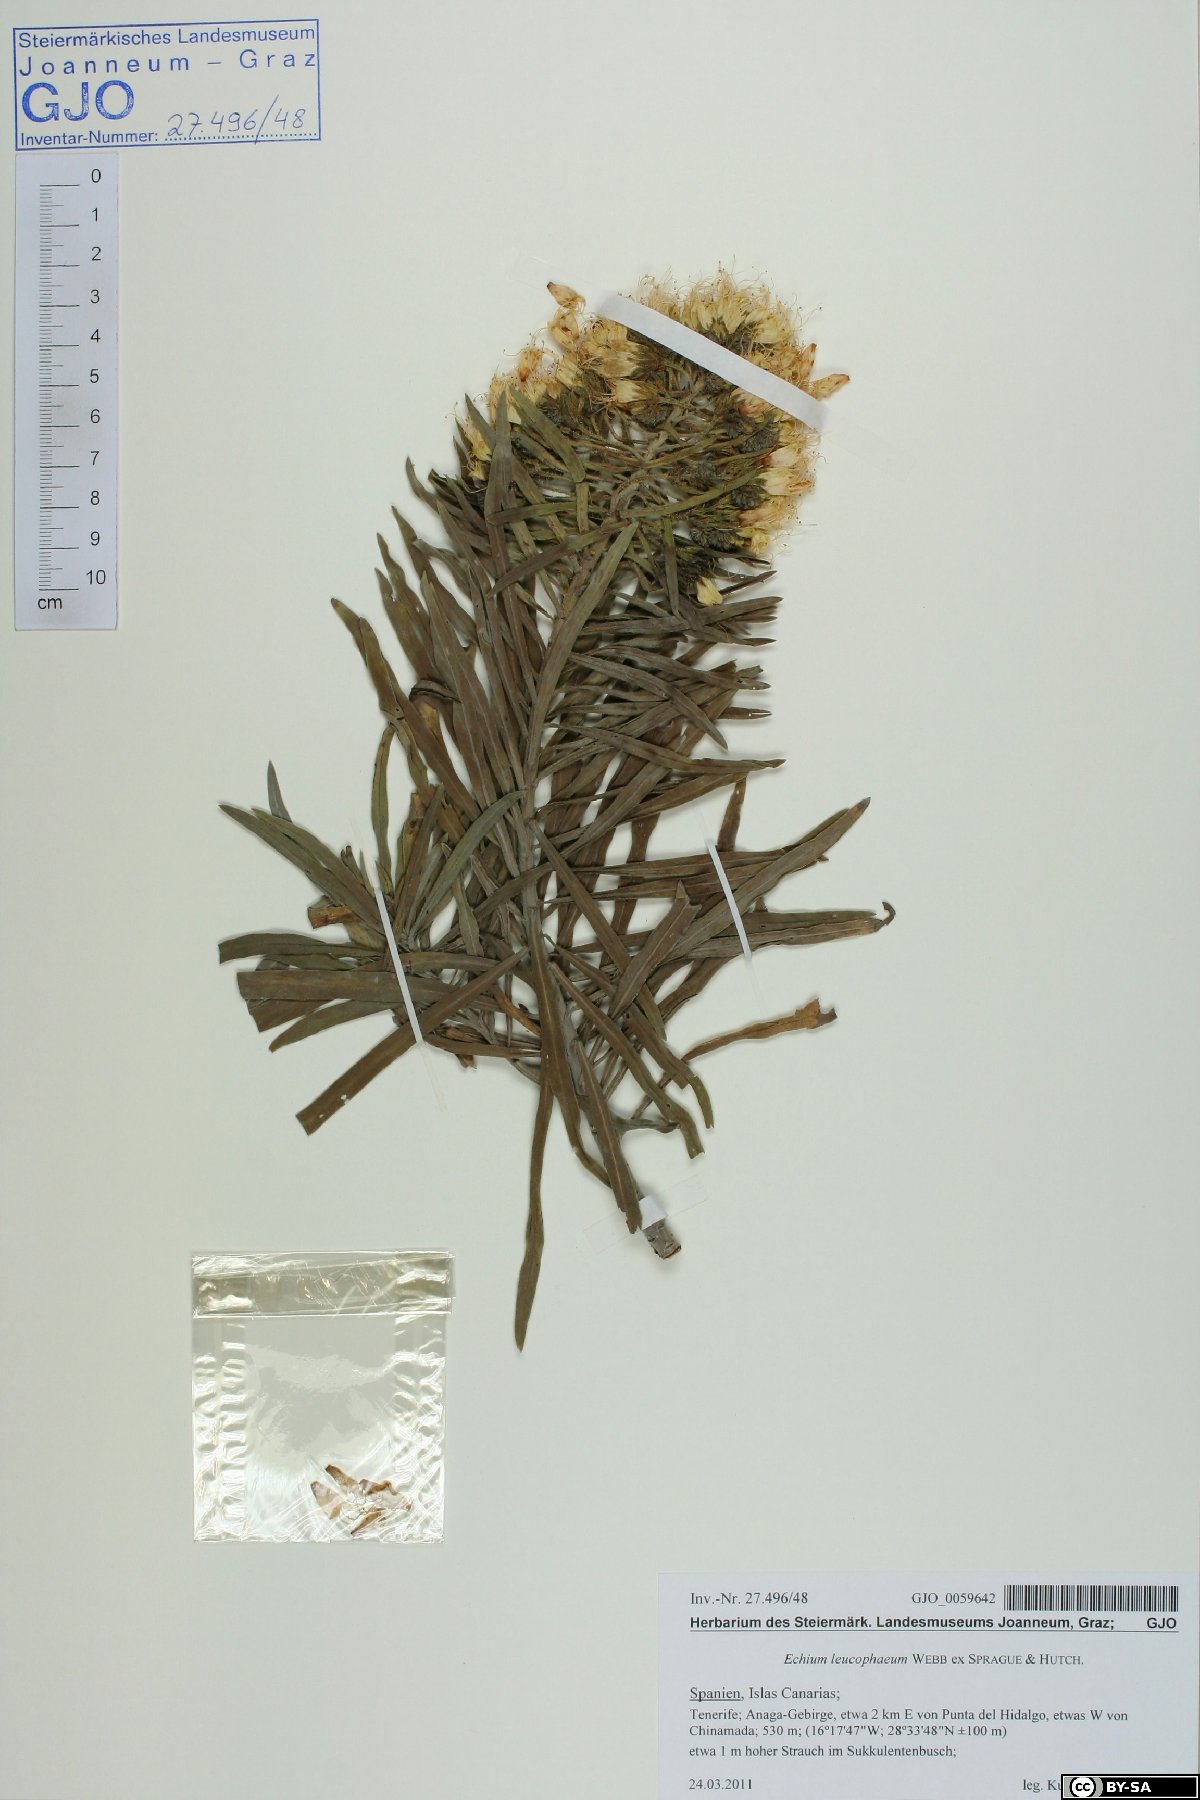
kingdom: Plantae
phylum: Tracheophyta
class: Magnoliopsida
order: Boraginales
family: Boraginaceae
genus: Echium
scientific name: Echium leucophaeum
